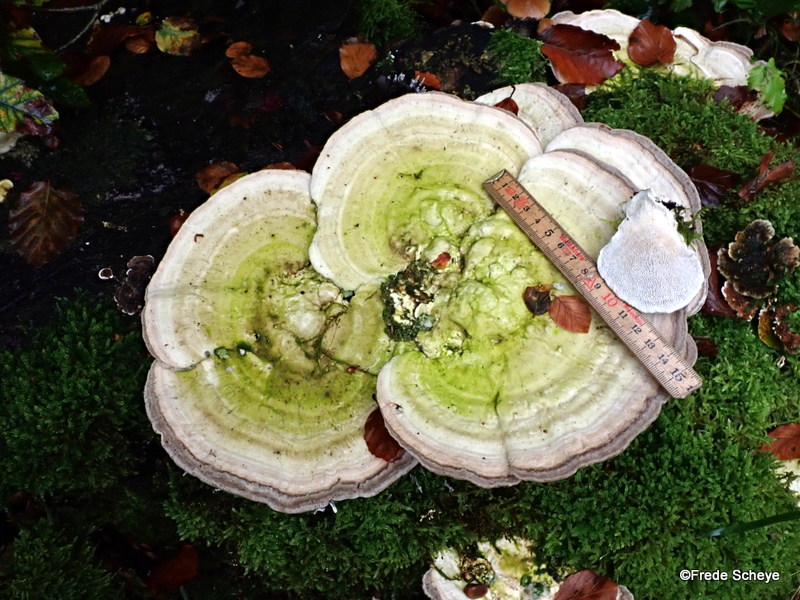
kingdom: Fungi
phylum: Basidiomycota
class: Agaricomycetes
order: Polyporales
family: Polyporaceae
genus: Trametes
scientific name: Trametes gibbosa
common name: puklet læderporesvamp
